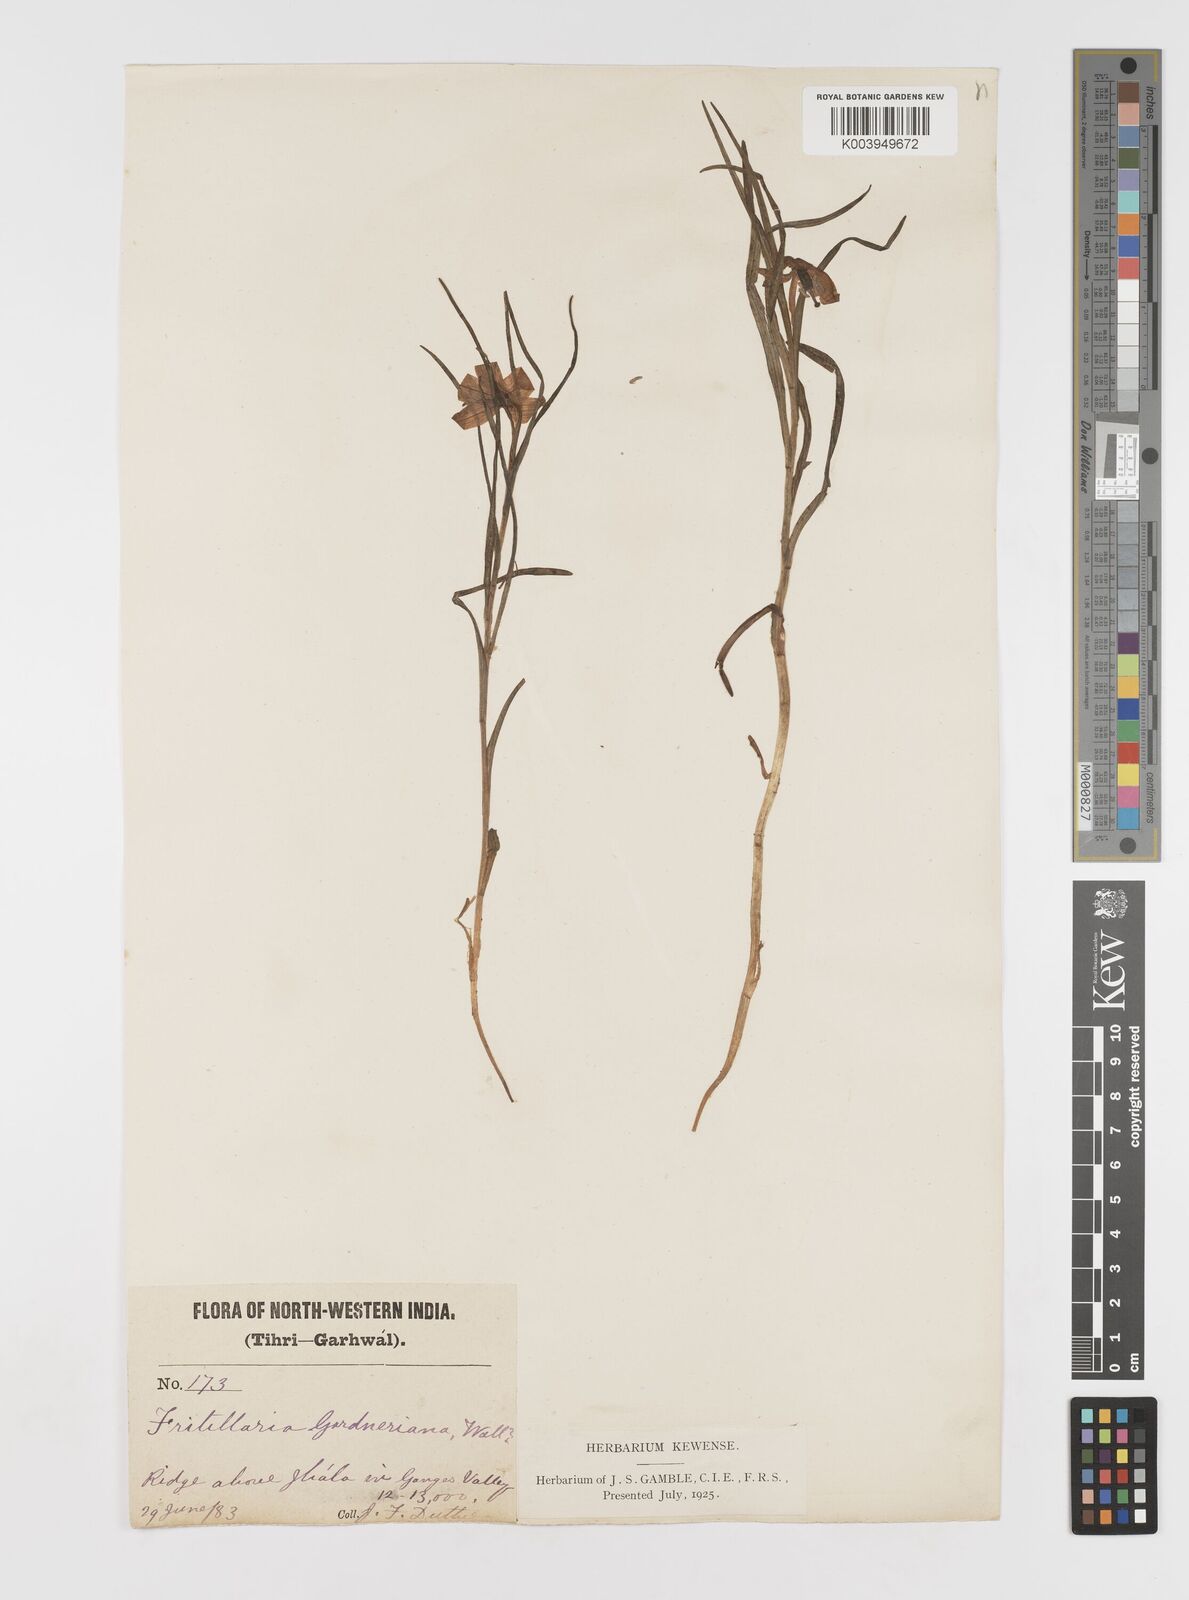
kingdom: Plantae
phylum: Tracheophyta
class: Liliopsida
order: Liliales
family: Liliaceae
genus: Lilium
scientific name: Lilium nanum
